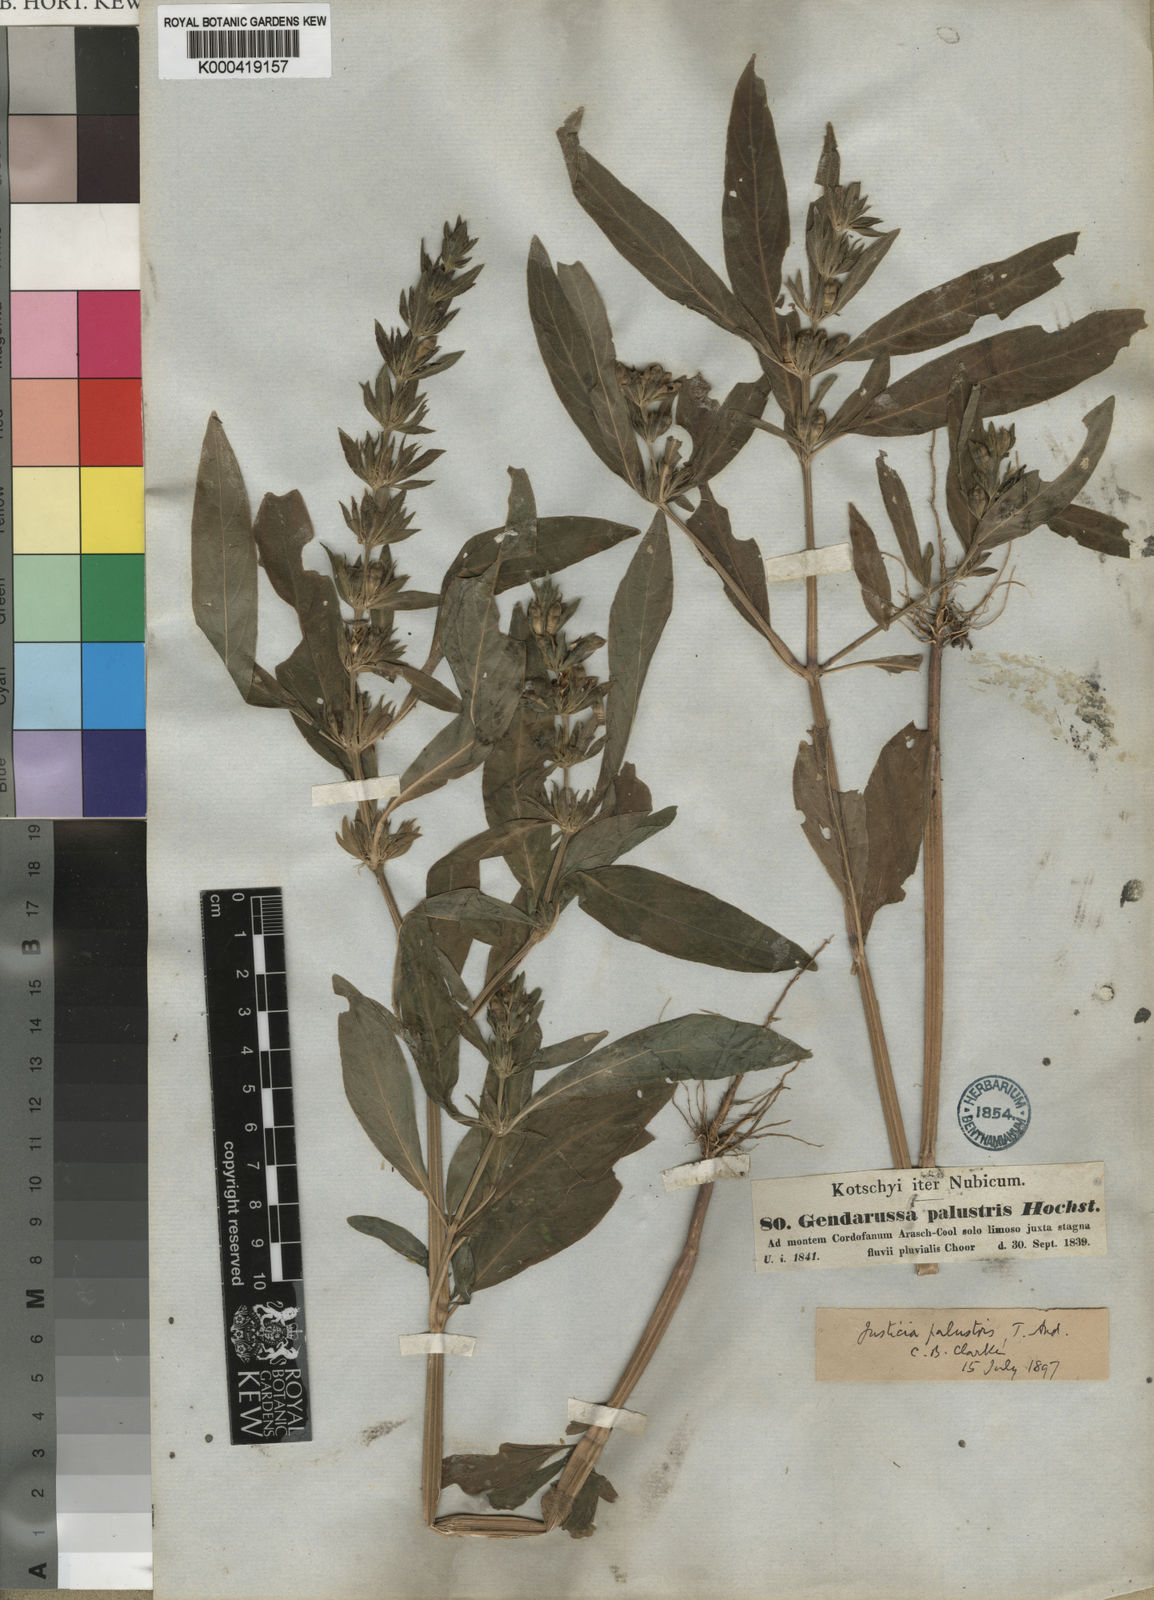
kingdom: Plantae
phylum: Tracheophyta
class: Magnoliopsida
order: Lamiales
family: Acanthaceae
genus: Justicia
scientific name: Justicia flava
